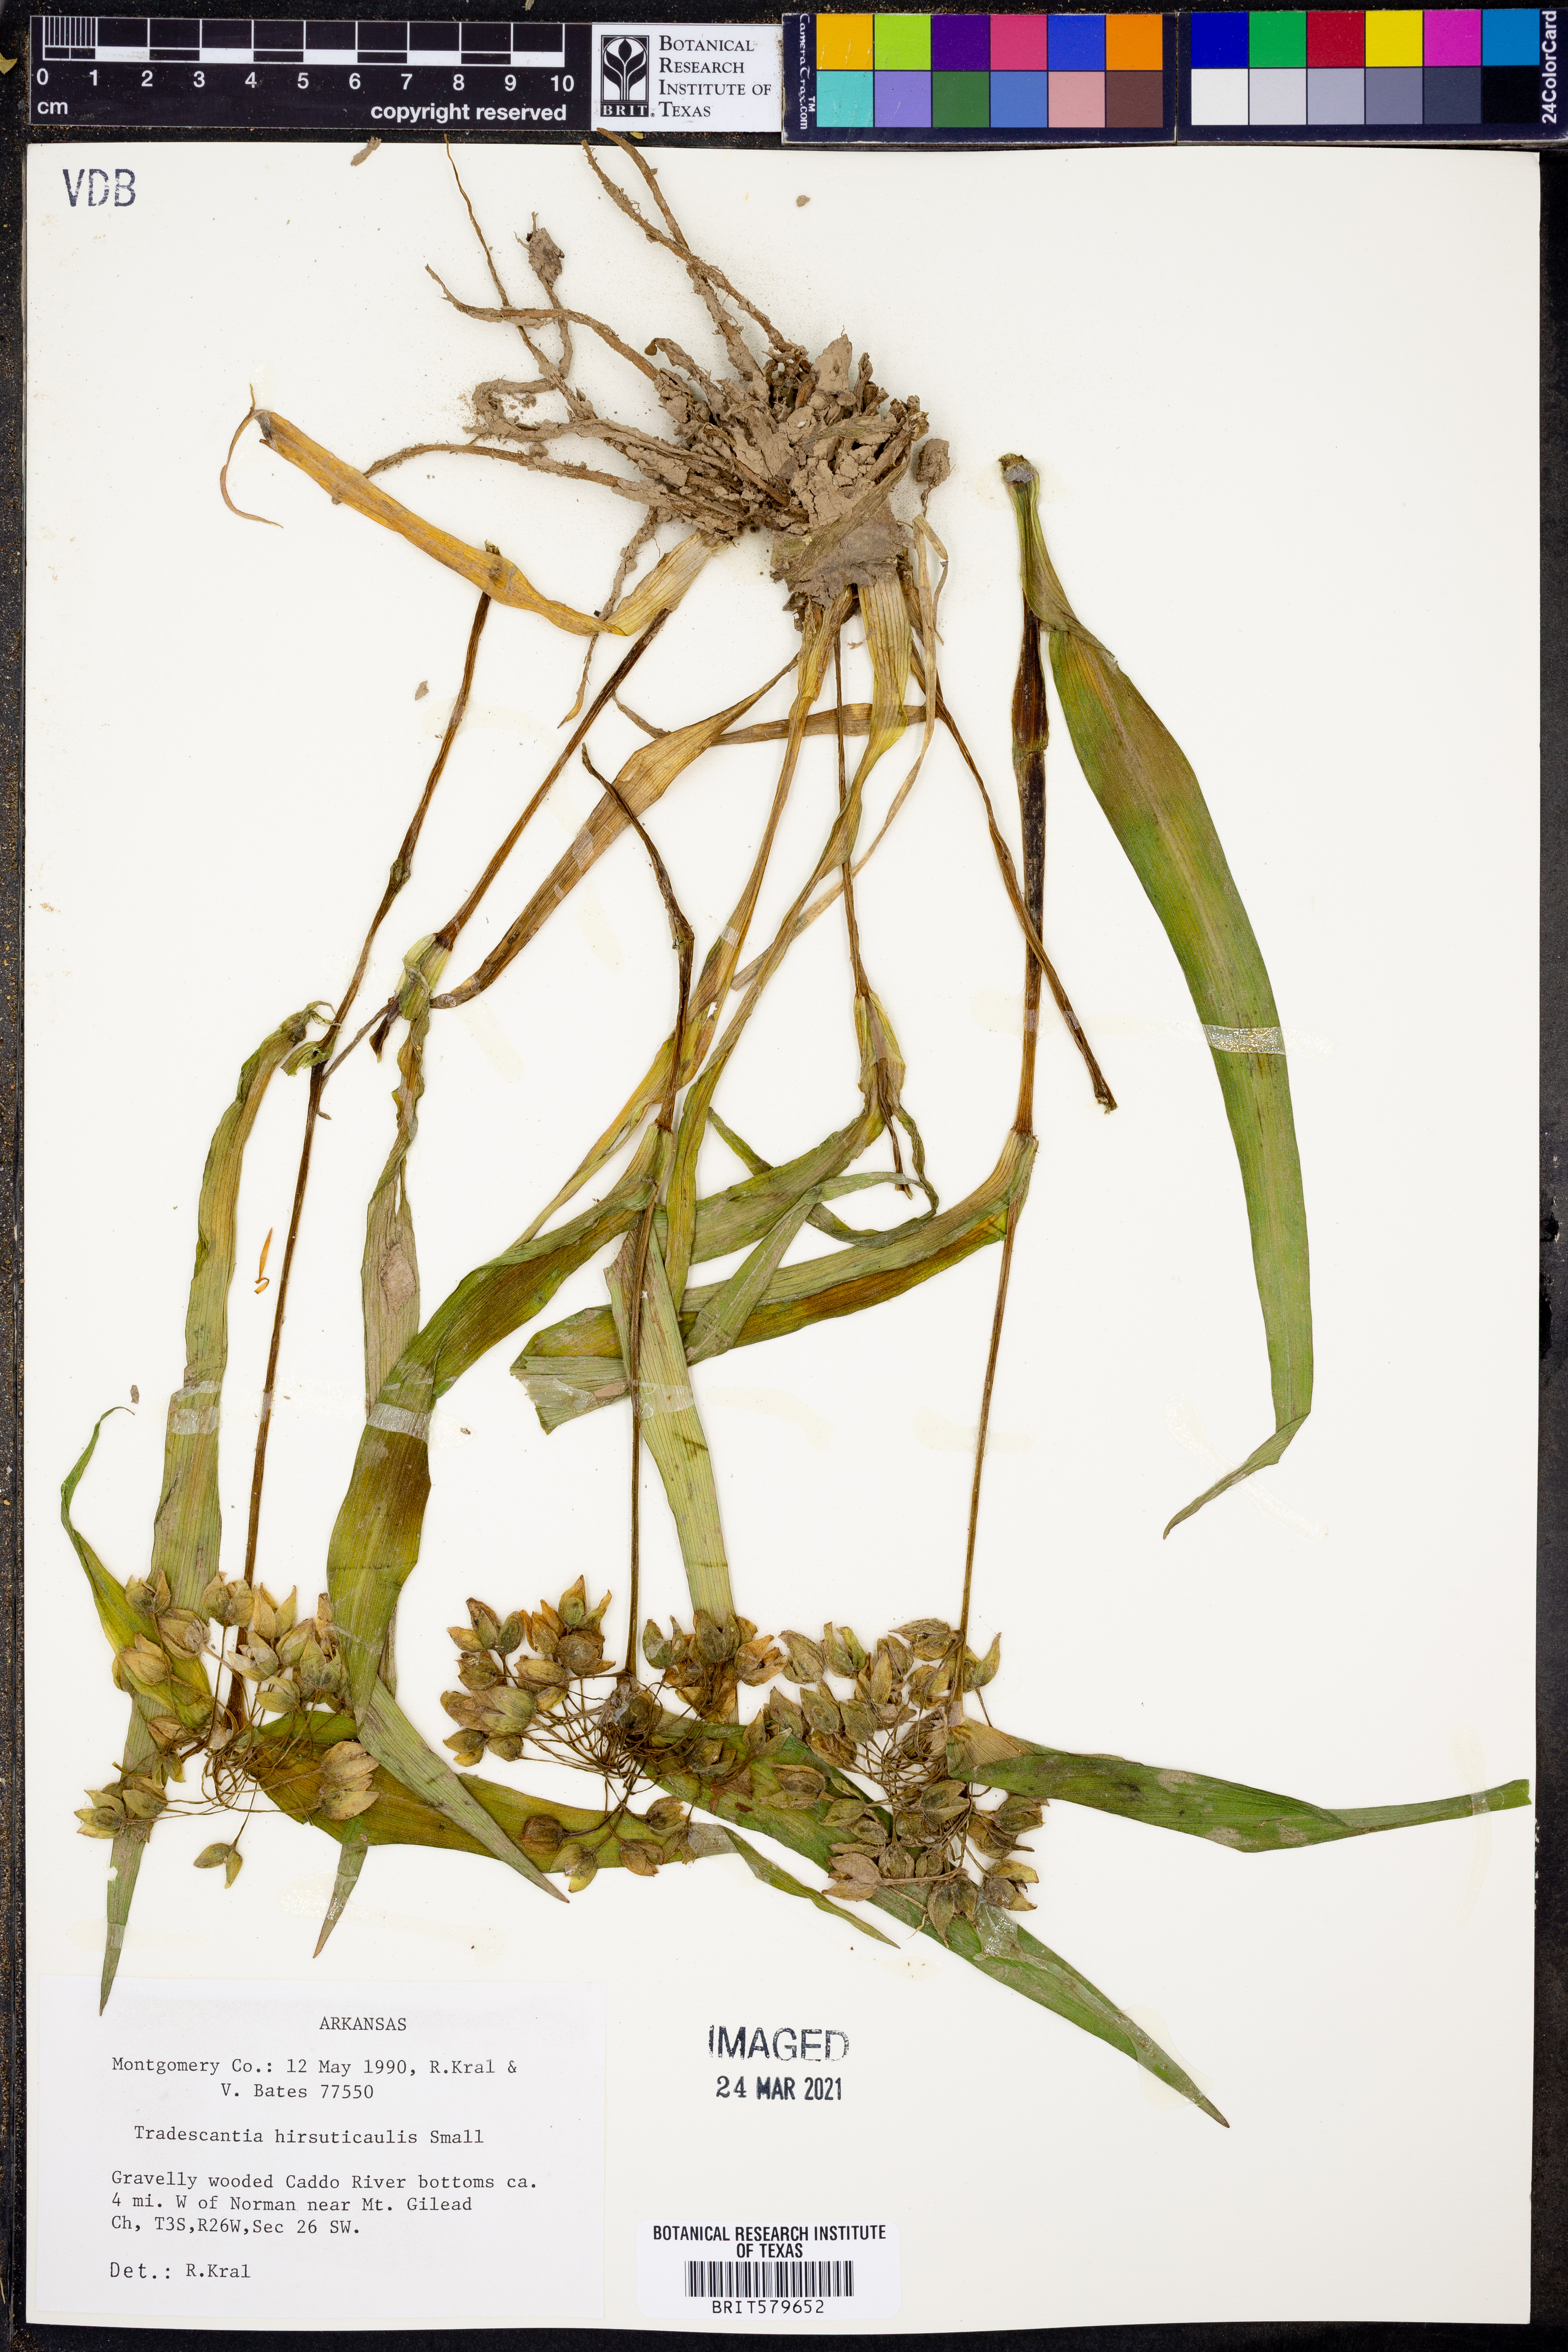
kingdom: Plantae
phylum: Tracheophyta
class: Liliopsida
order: Commelinales
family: Commelinaceae
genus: Tradescantia
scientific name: Tradescantia hirsuticaulis
